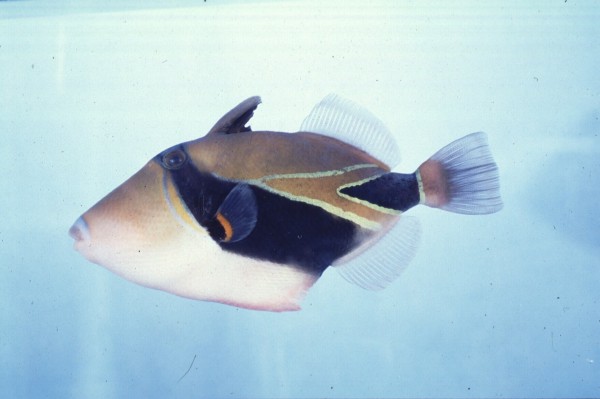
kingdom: Animalia
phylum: Chordata
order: Tetraodontiformes
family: Balistidae
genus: Rhinecanthus
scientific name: Rhinecanthus rectangulus
